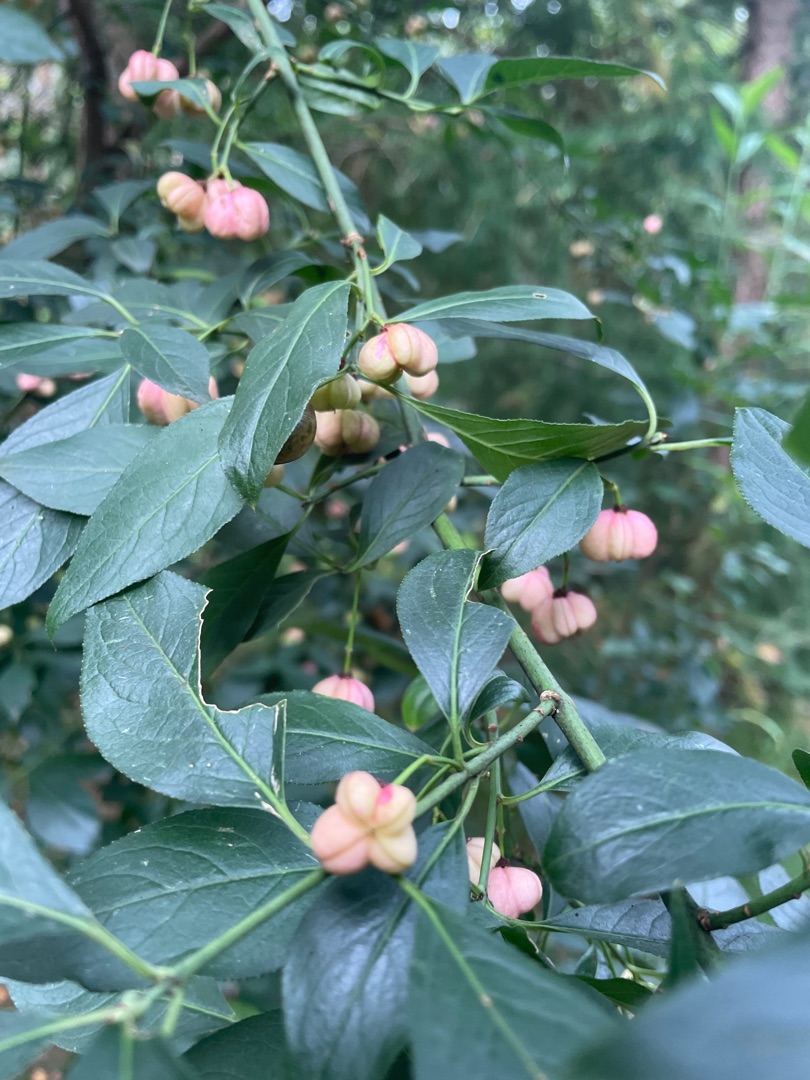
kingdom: Plantae
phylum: Tracheophyta
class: Magnoliopsida
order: Celastrales
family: Celastraceae
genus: Euonymus
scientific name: Euonymus europaeus
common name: Benved
